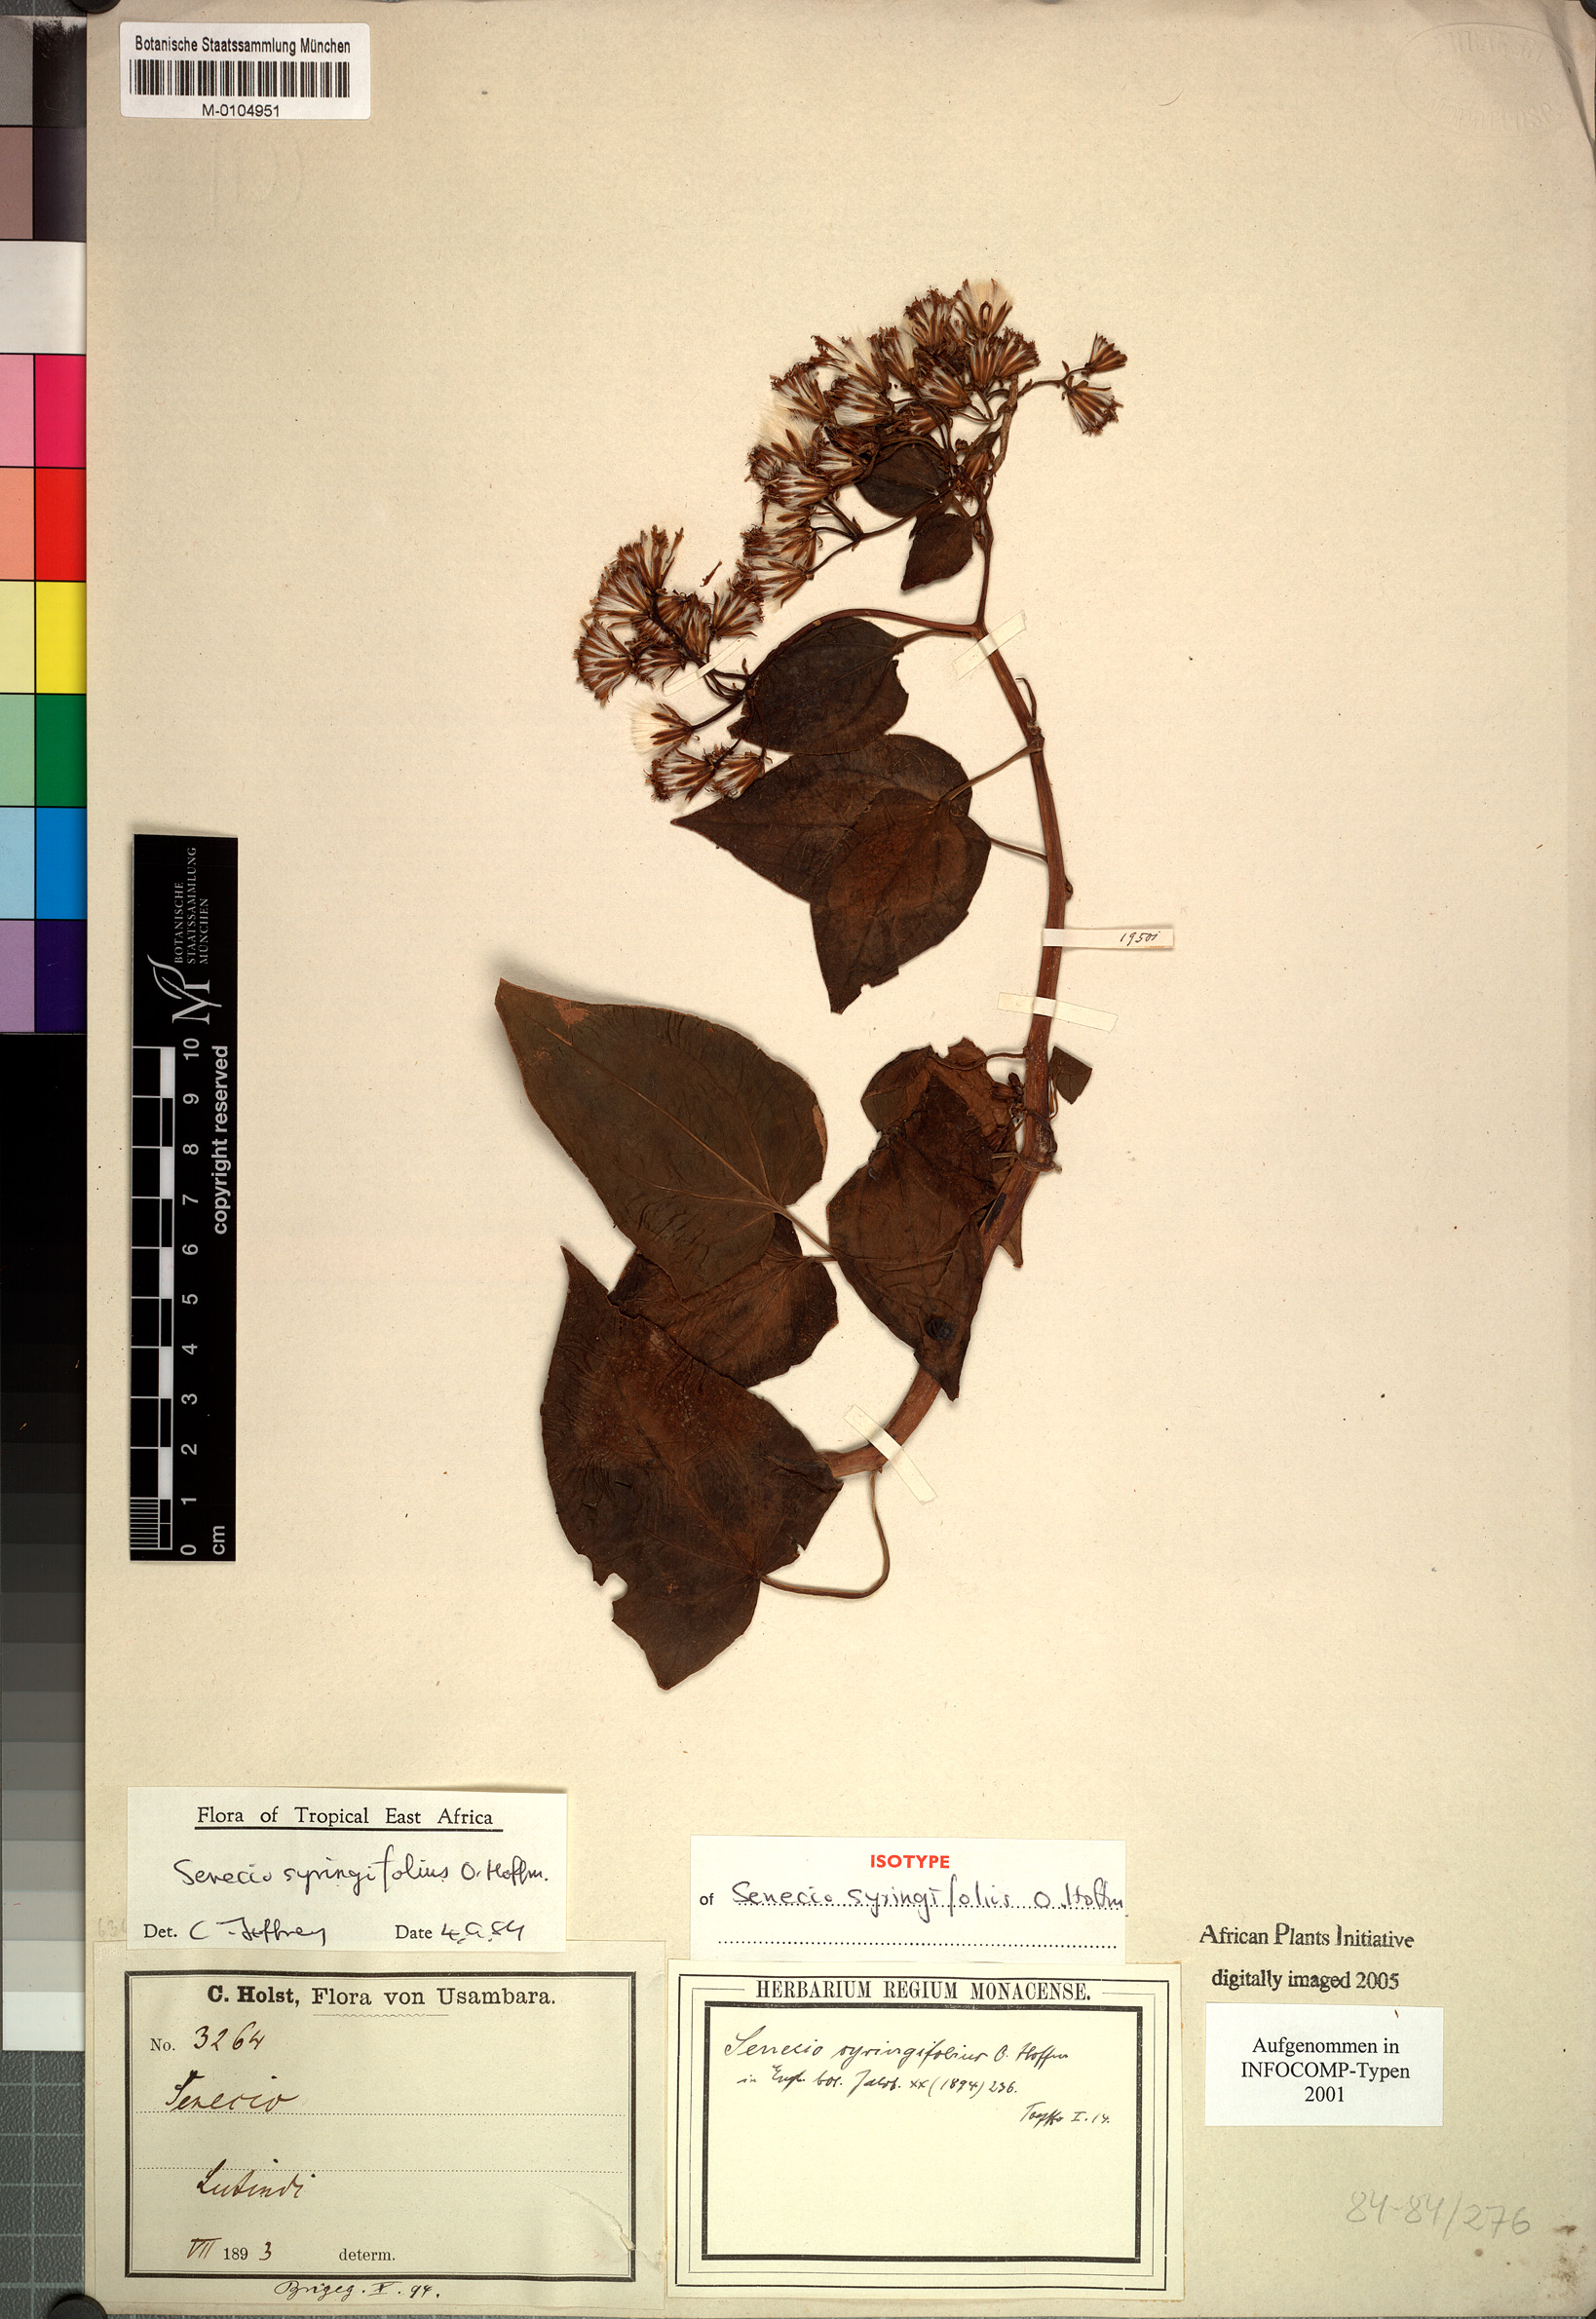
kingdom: Plantae
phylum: Tracheophyta
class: Magnoliopsida
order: Asterales
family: Asteraceae
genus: Senecio
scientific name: Senecio syringifolius
